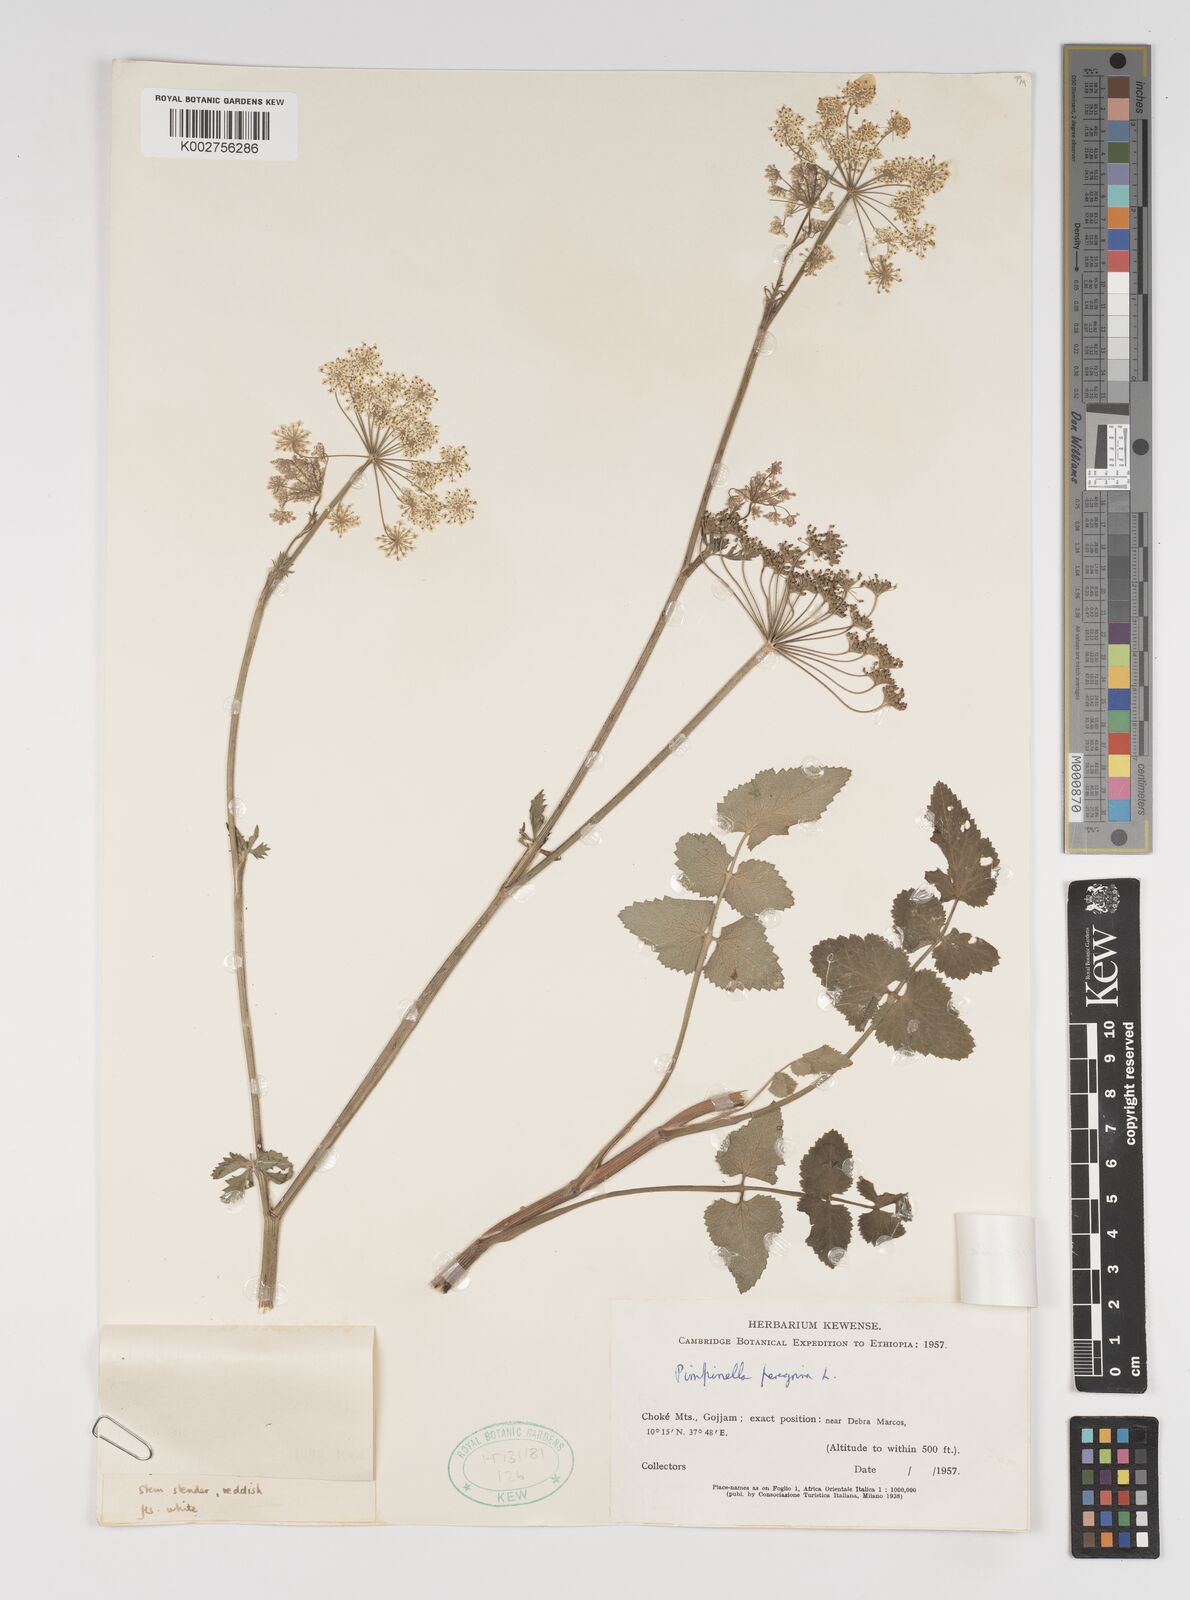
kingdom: Plantae
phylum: Tracheophyta
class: Magnoliopsida
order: Apiales
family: Apiaceae
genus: Pimpinella
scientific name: Pimpinella hirtella
